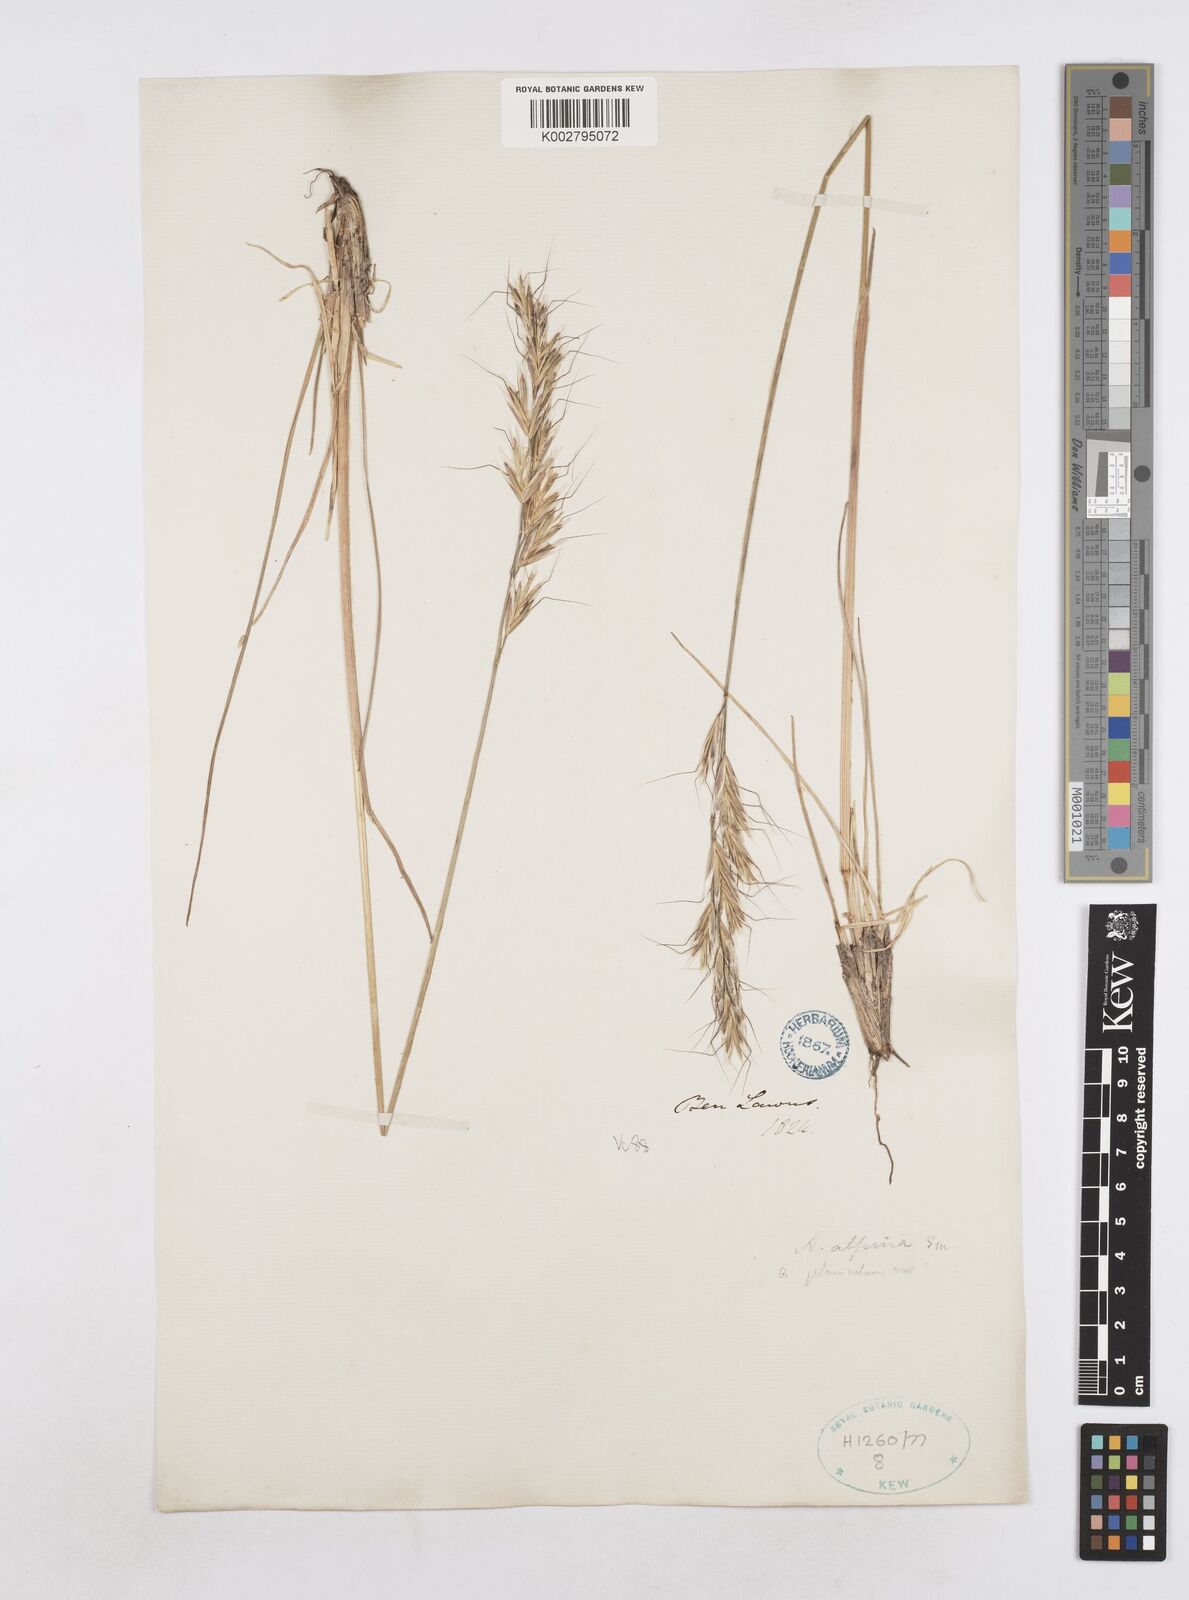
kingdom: Plantae
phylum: Tracheophyta
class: Liliopsida
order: Poales
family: Poaceae
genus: Helictotrichon
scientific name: Helictotrichon
